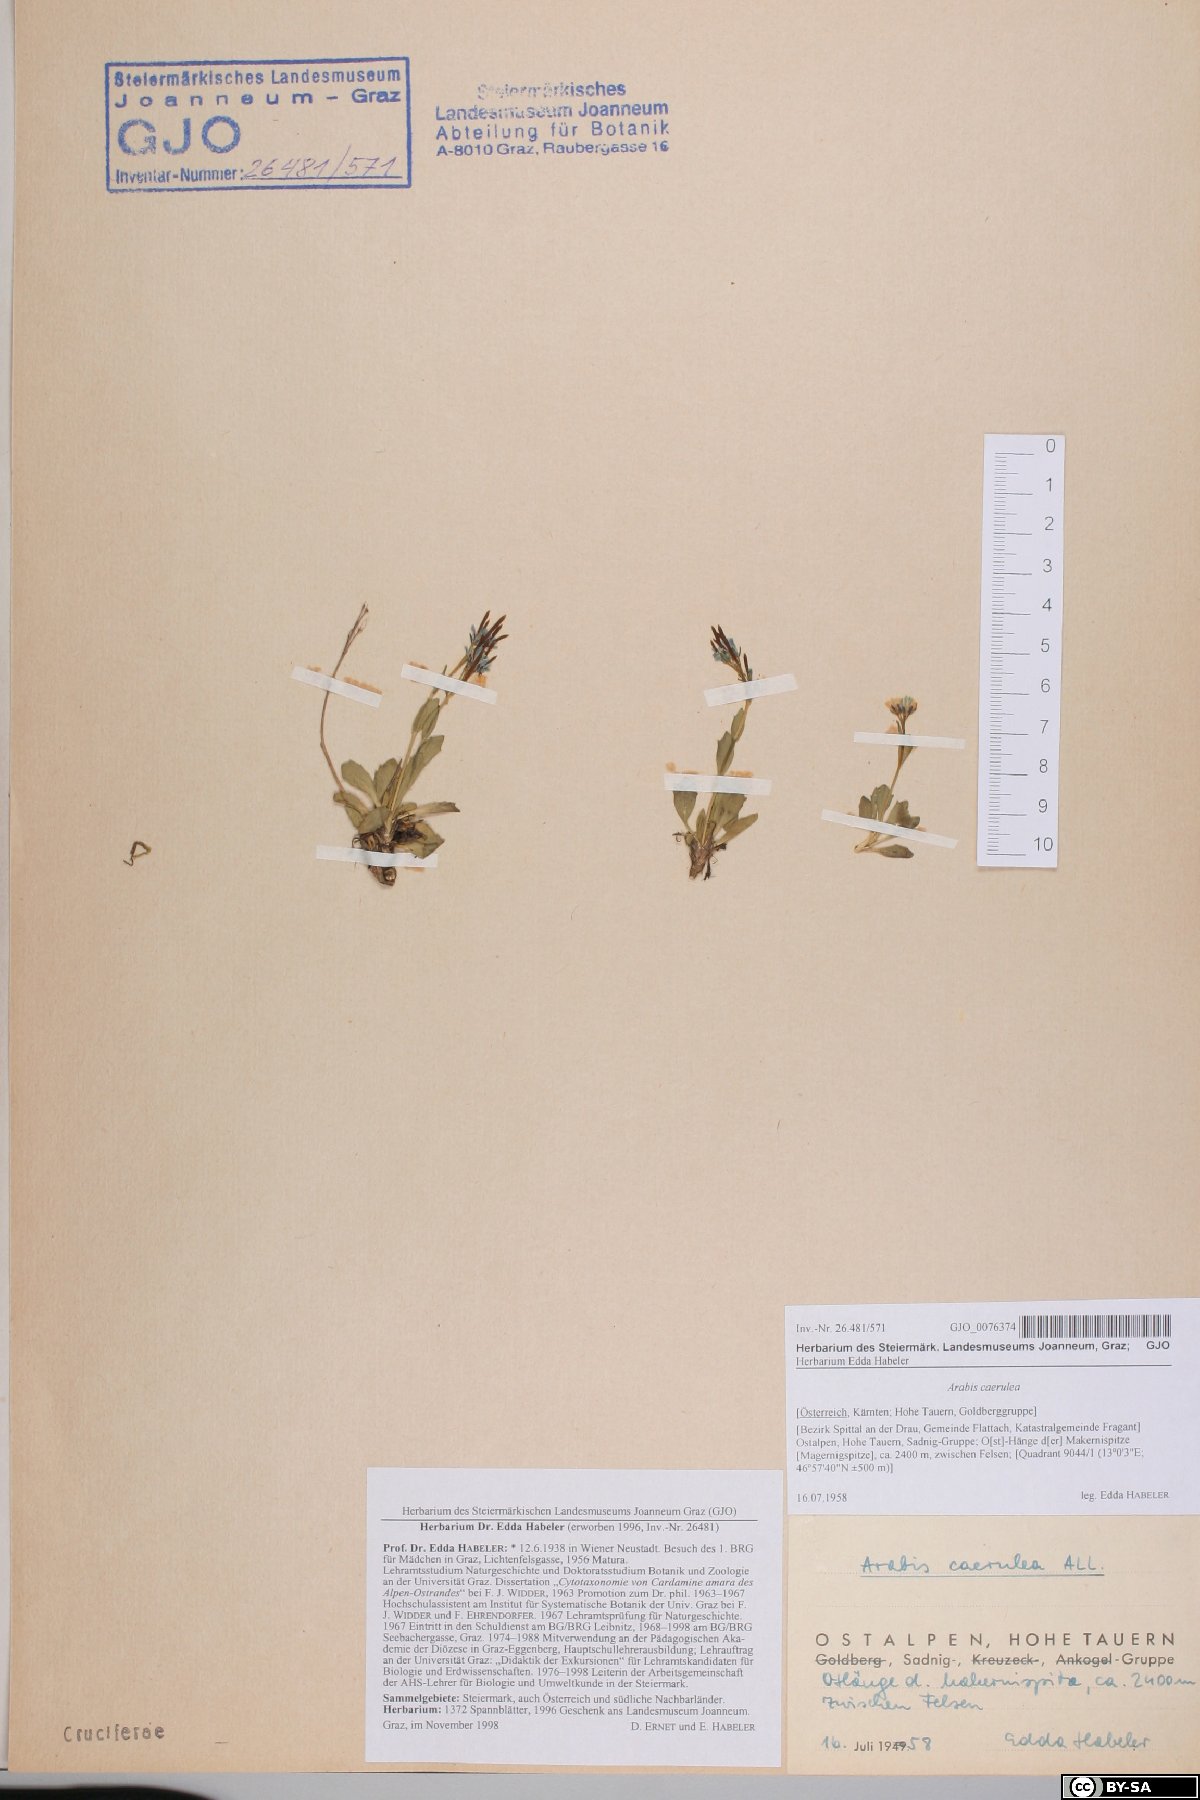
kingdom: Plantae
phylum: Tracheophyta
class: Magnoliopsida
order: Brassicales
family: Brassicaceae
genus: Arabis
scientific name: Arabis caerulea
